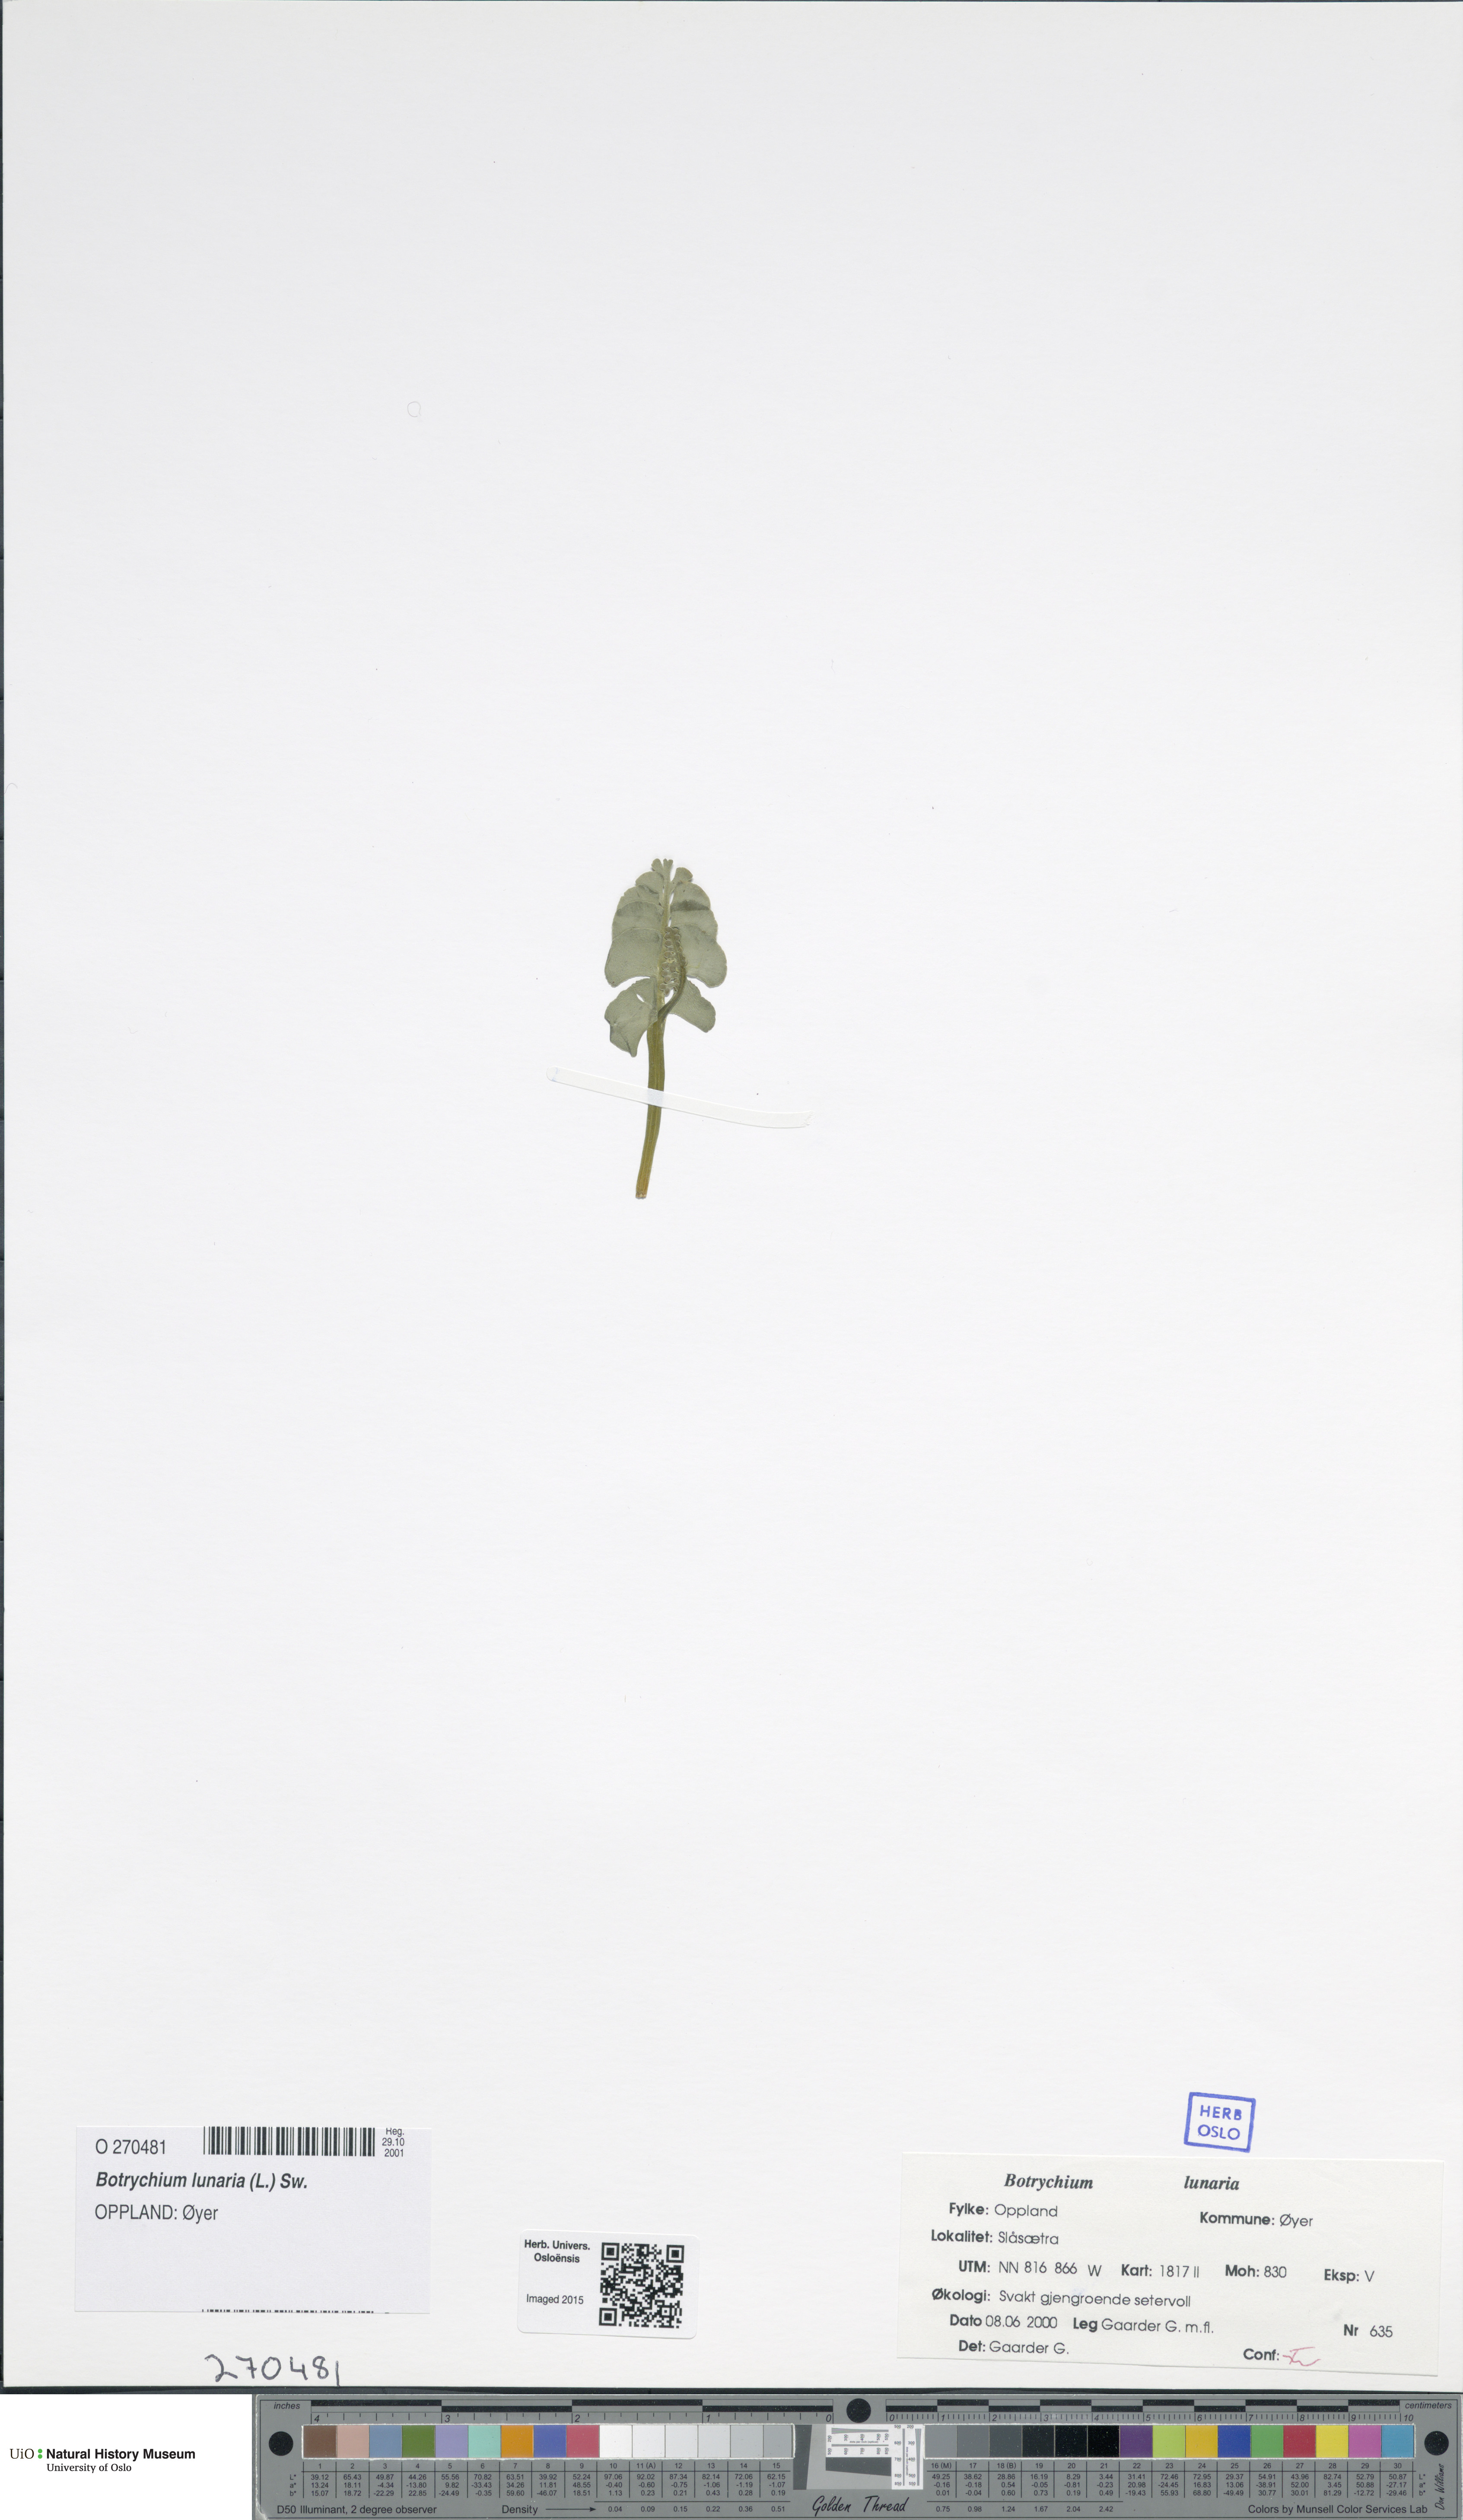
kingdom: Plantae
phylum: Tracheophyta
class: Polypodiopsida
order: Ophioglossales
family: Ophioglossaceae
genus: Botrychium
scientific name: Botrychium lunaria
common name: Moonwort
